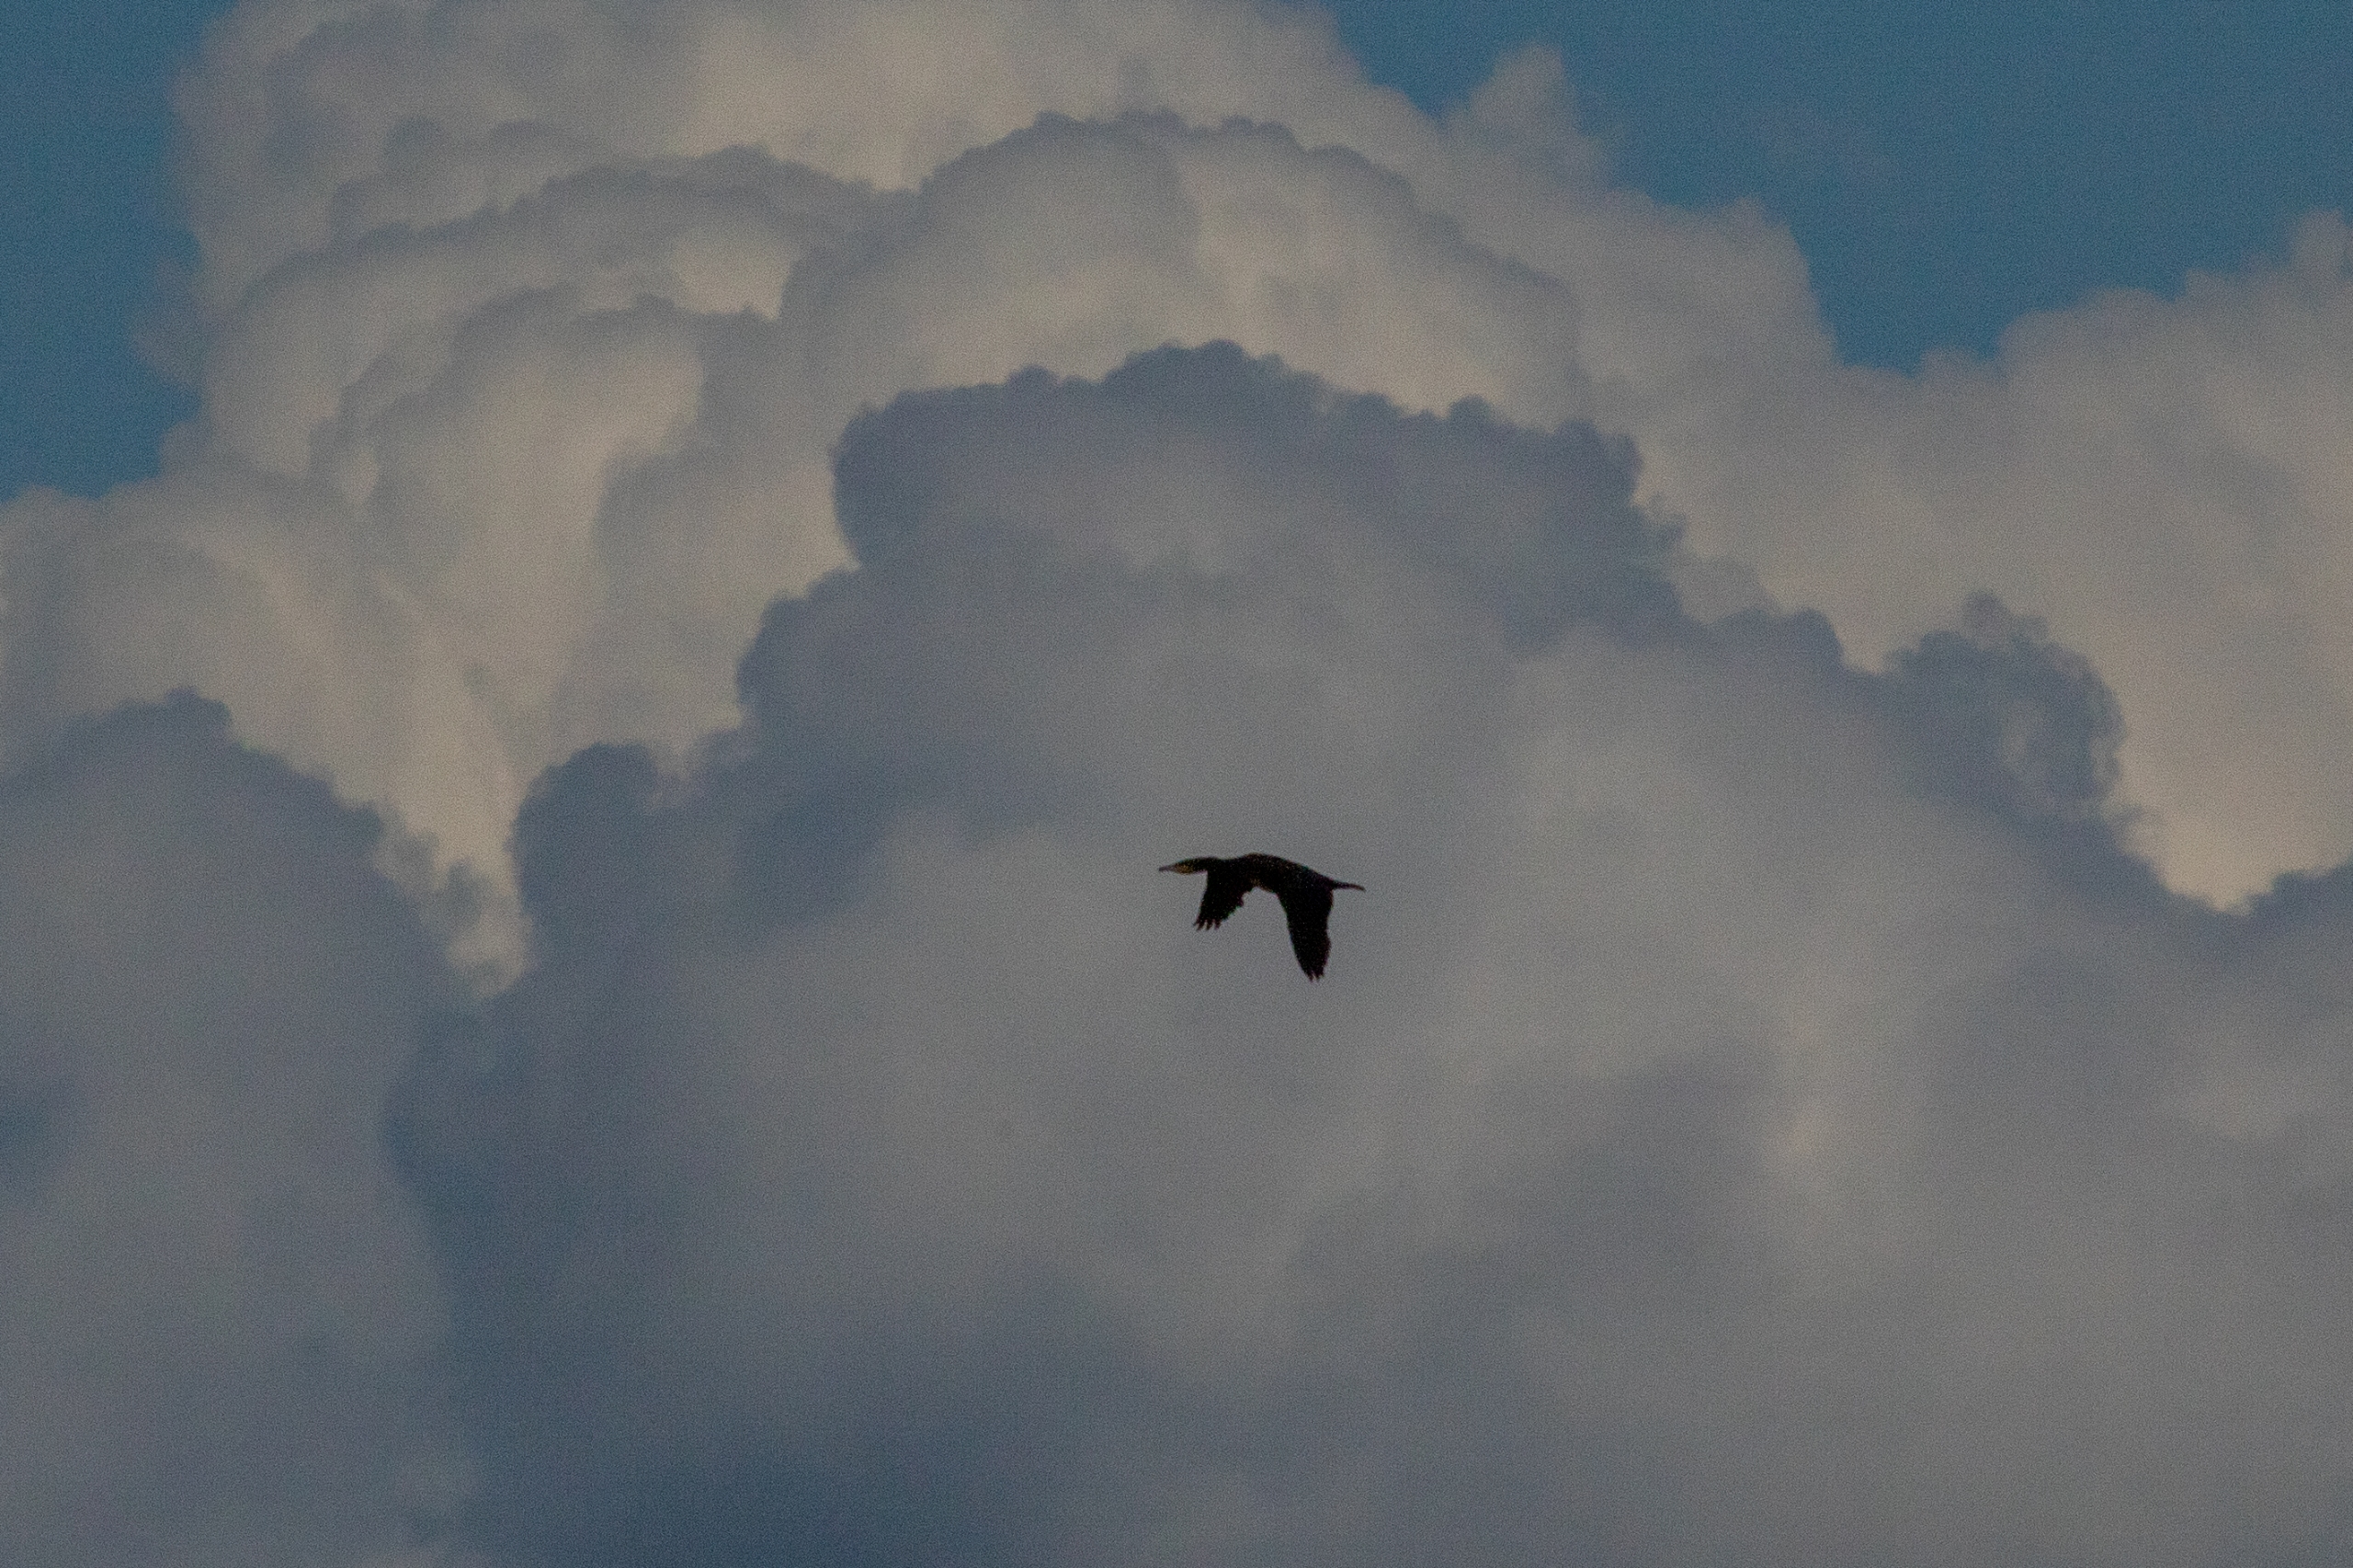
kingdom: Animalia
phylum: Chordata
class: Aves
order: Suliformes
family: Phalacrocoracidae
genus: Phalacrocorax
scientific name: Phalacrocorax carbo
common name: Skarv
